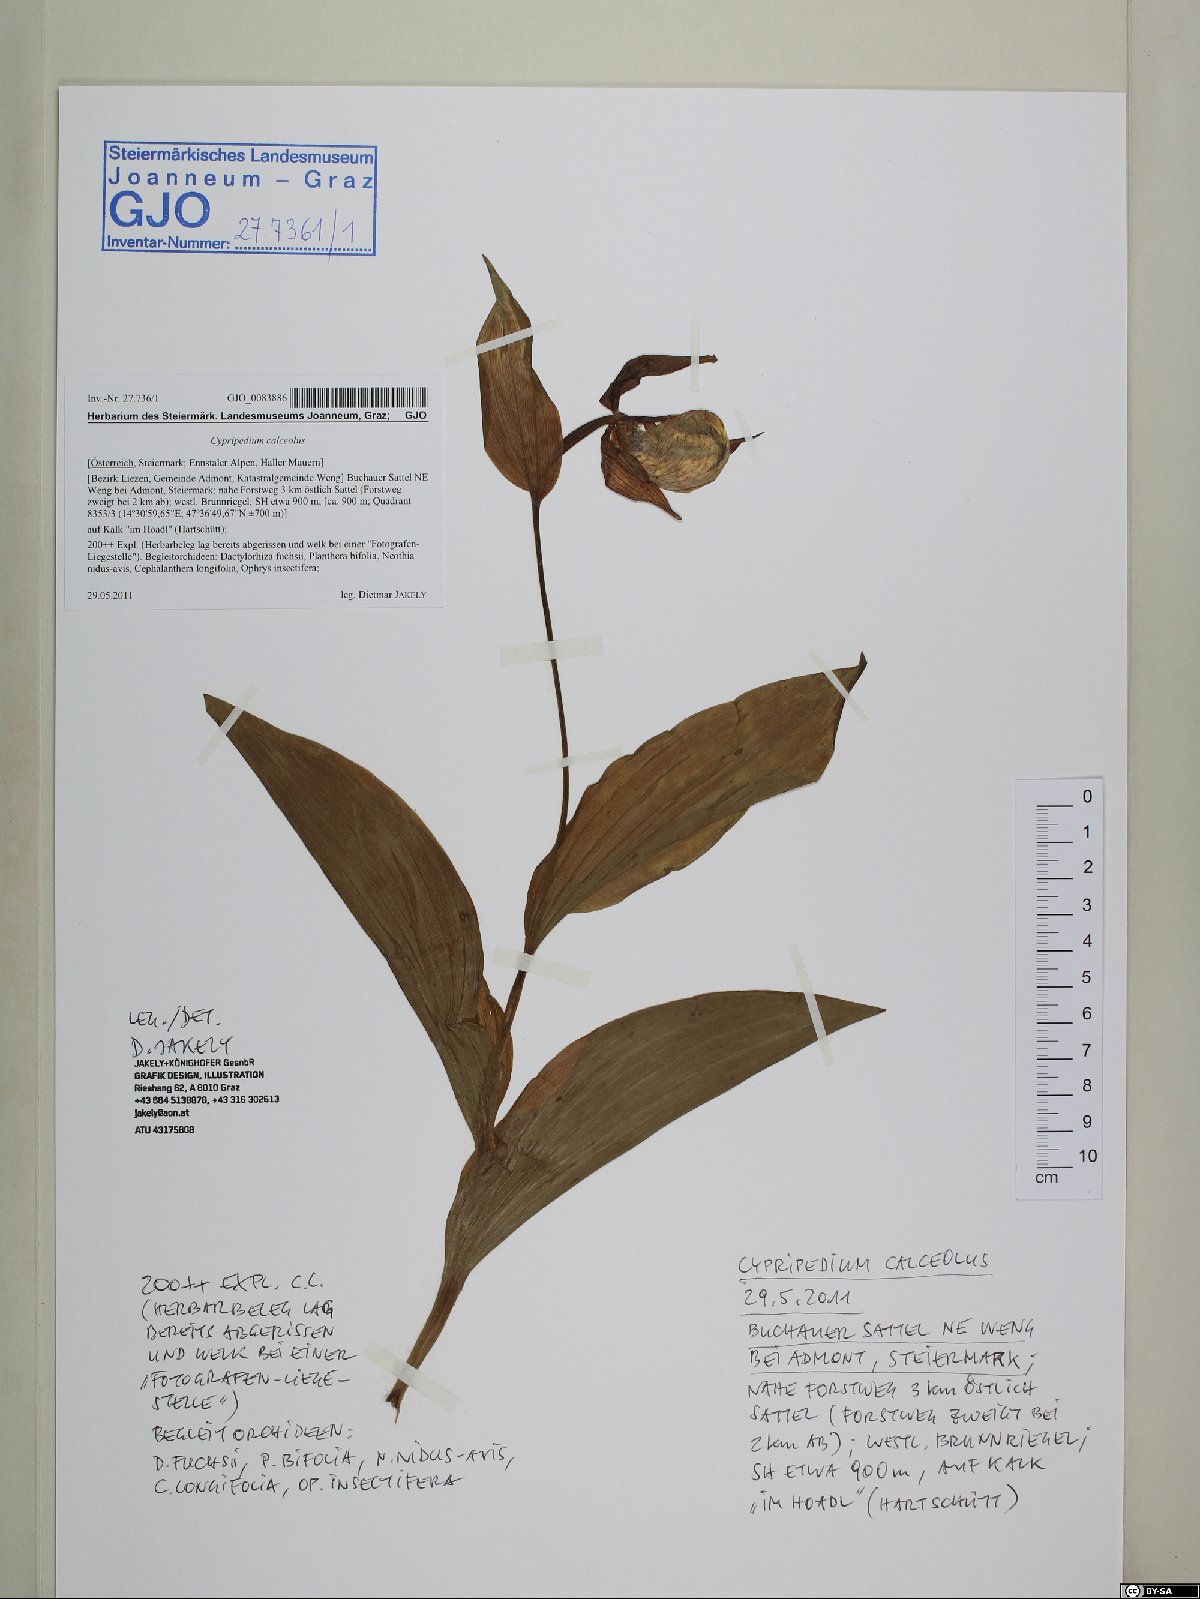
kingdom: Plantae
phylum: Tracheophyta
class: Liliopsida
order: Asparagales
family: Orchidaceae
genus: Cypripedium
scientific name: Cypripedium calceolus
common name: Lady's-slipper
